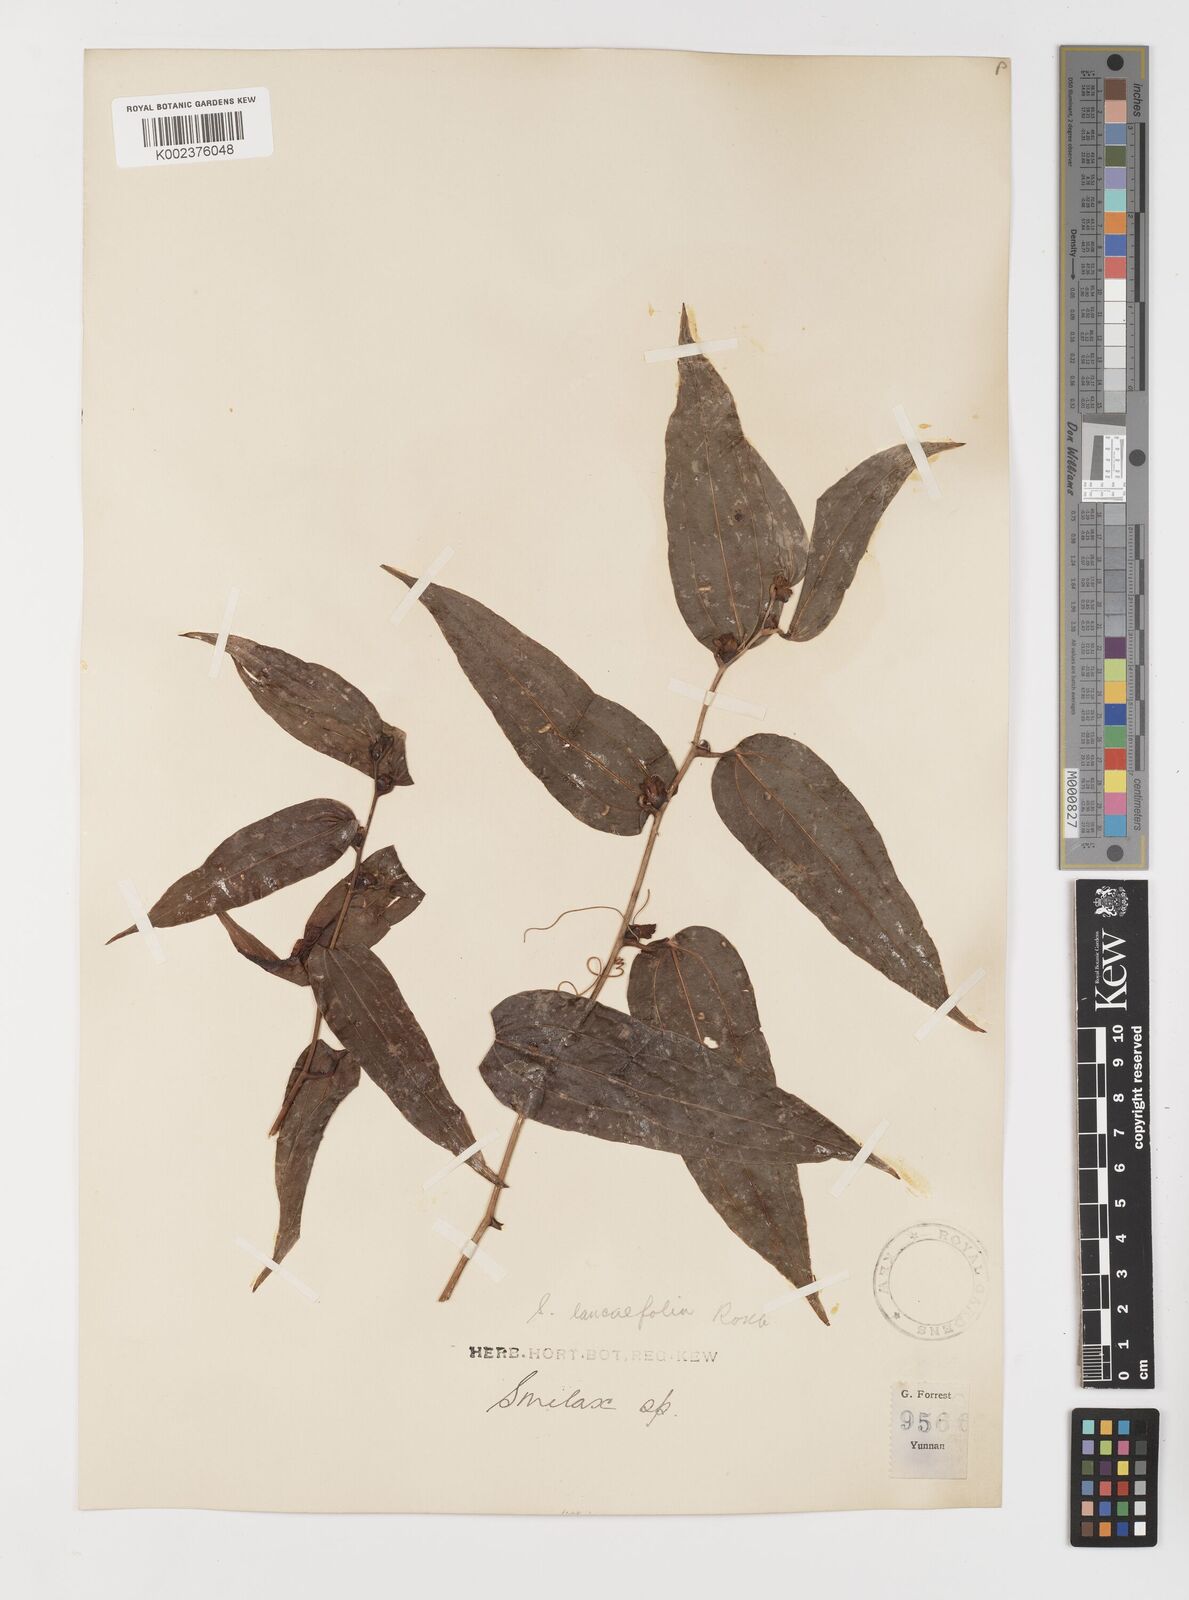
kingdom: Plantae
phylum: Tracheophyta
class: Liliopsida
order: Liliales
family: Smilacaceae
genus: Smilax
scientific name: Smilax lanceifolia
